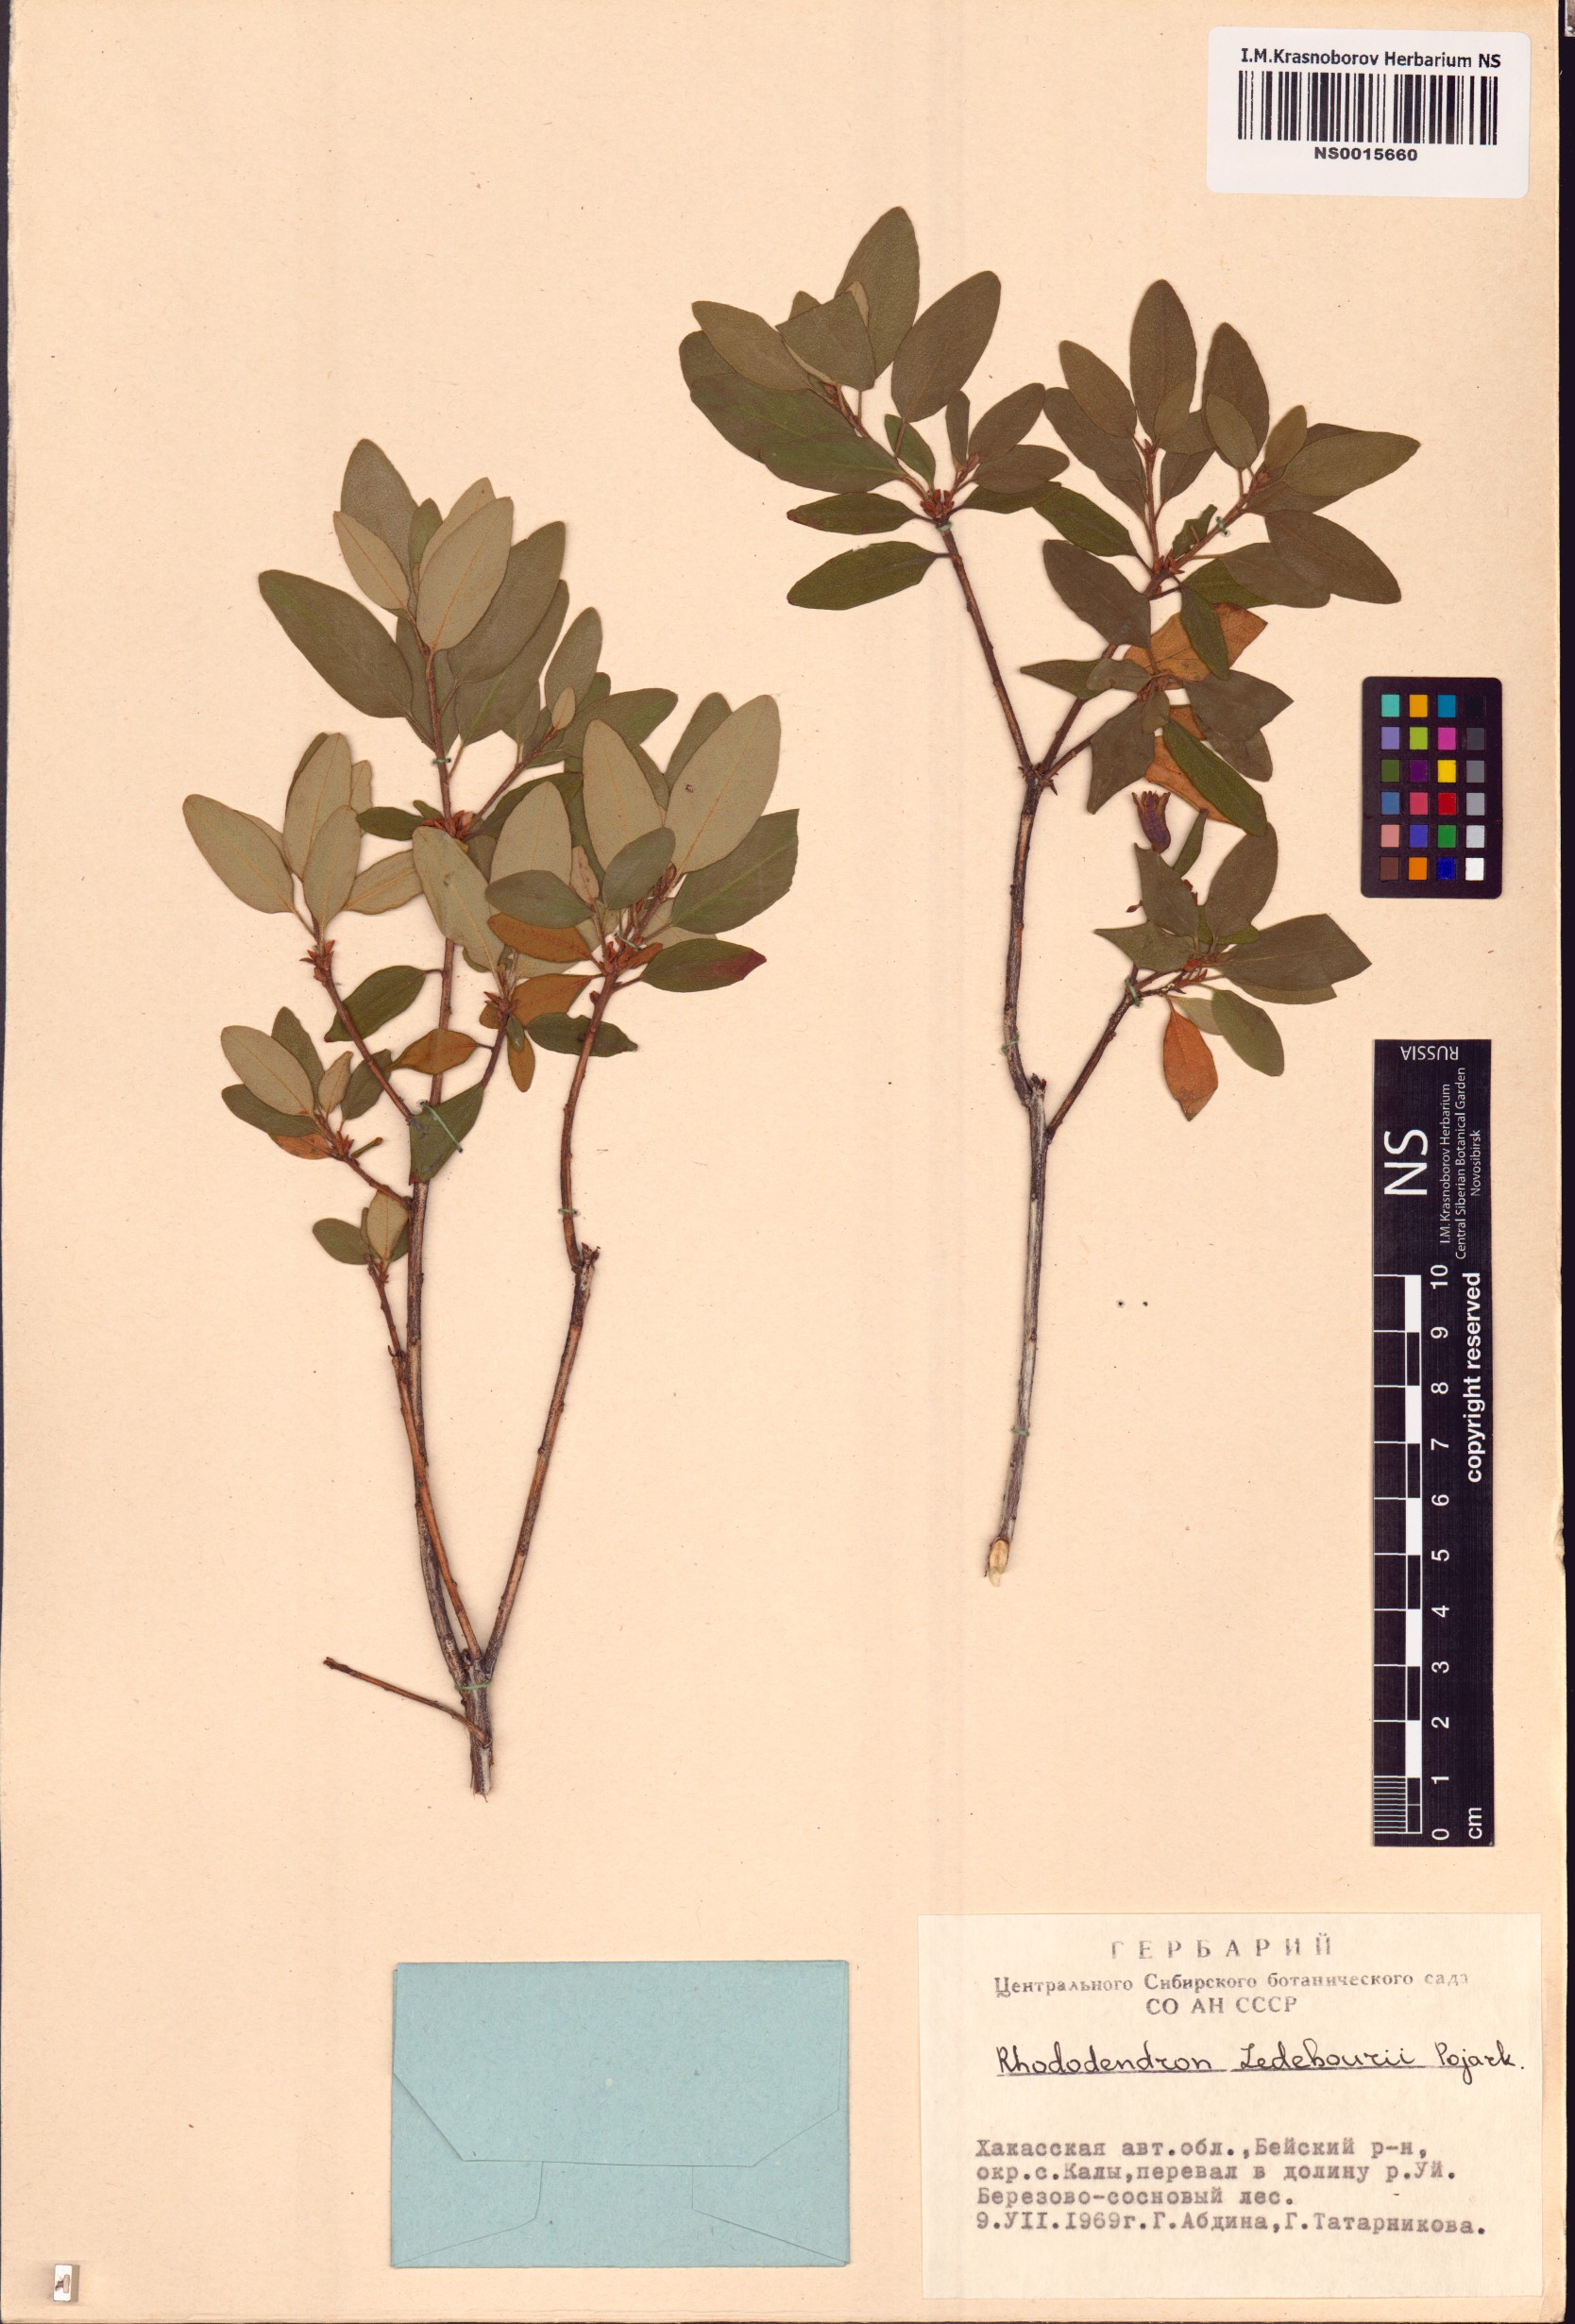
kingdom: Plantae
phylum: Tracheophyta
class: Magnoliopsida
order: Ericales
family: Ericaceae
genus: Rhododendron
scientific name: Rhododendron dauricum
